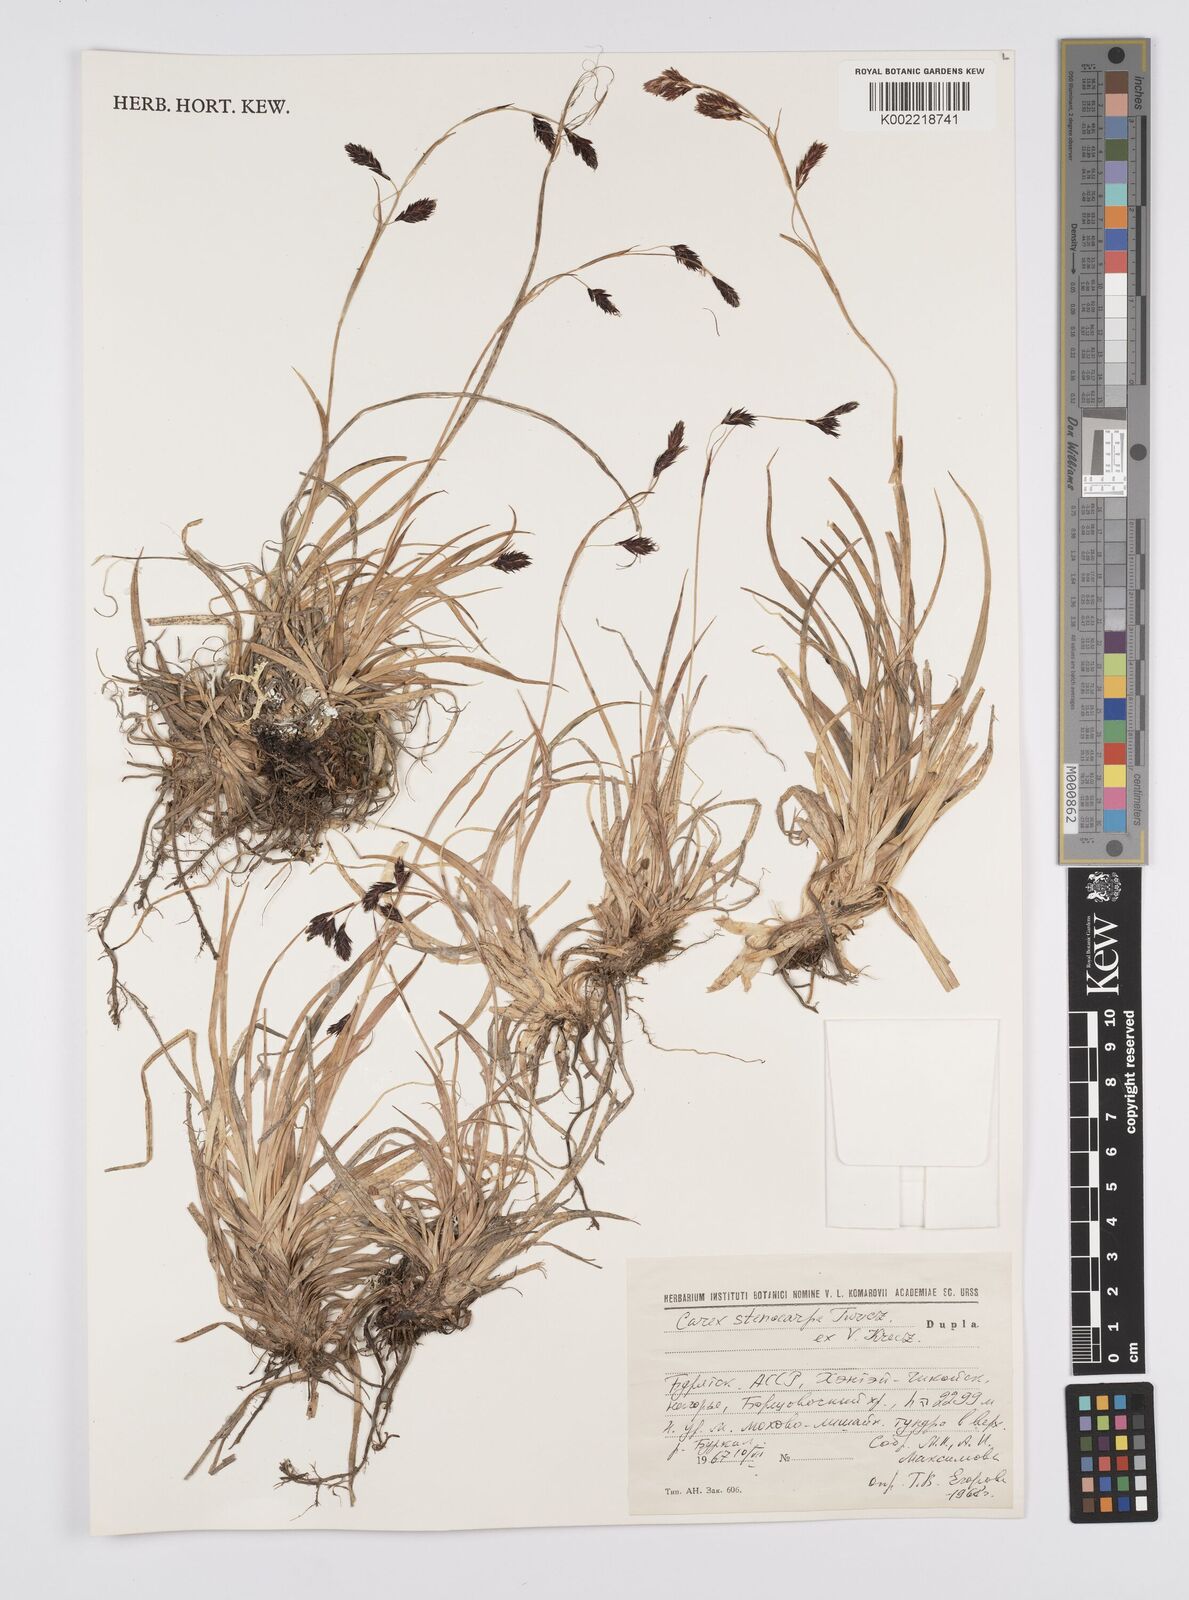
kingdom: Plantae
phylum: Tracheophyta
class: Liliopsida
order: Poales
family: Cyperaceae
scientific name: Cyperaceae
